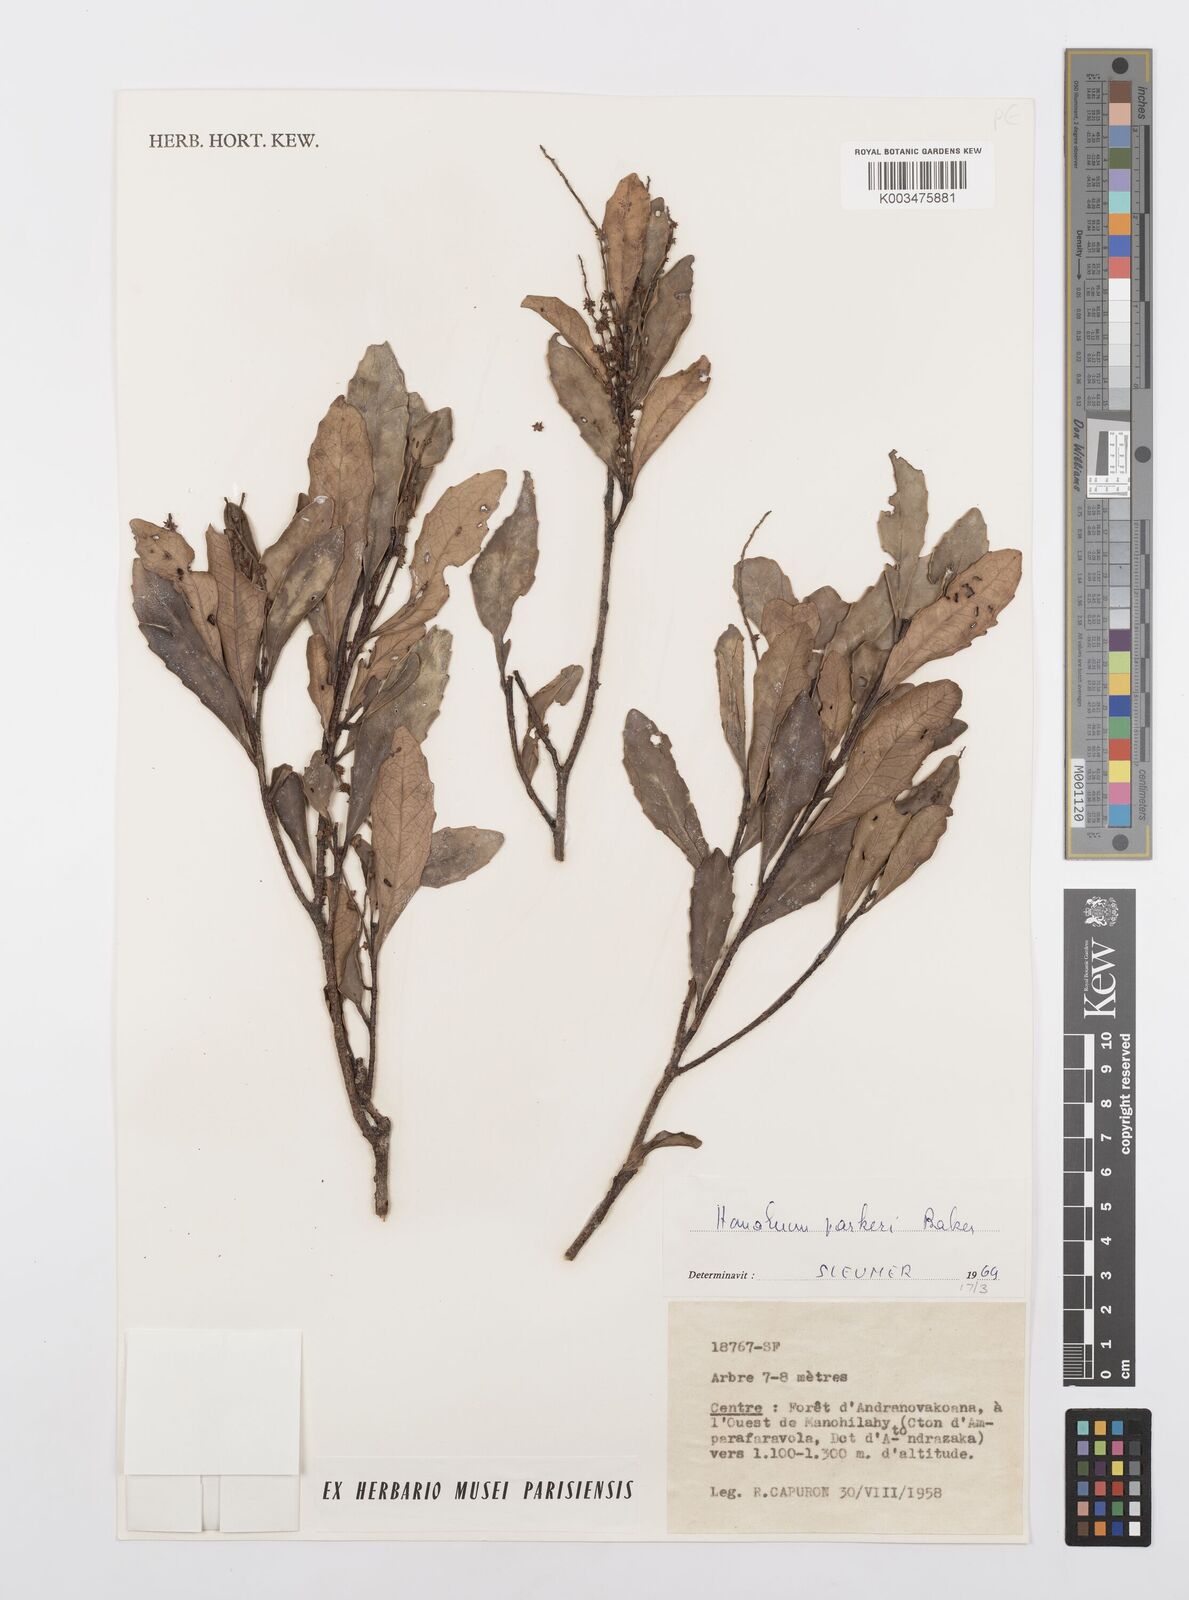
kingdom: Plantae
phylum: Tracheophyta
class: Magnoliopsida
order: Malpighiales
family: Salicaceae
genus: Homalium
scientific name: Homalium parkeri
